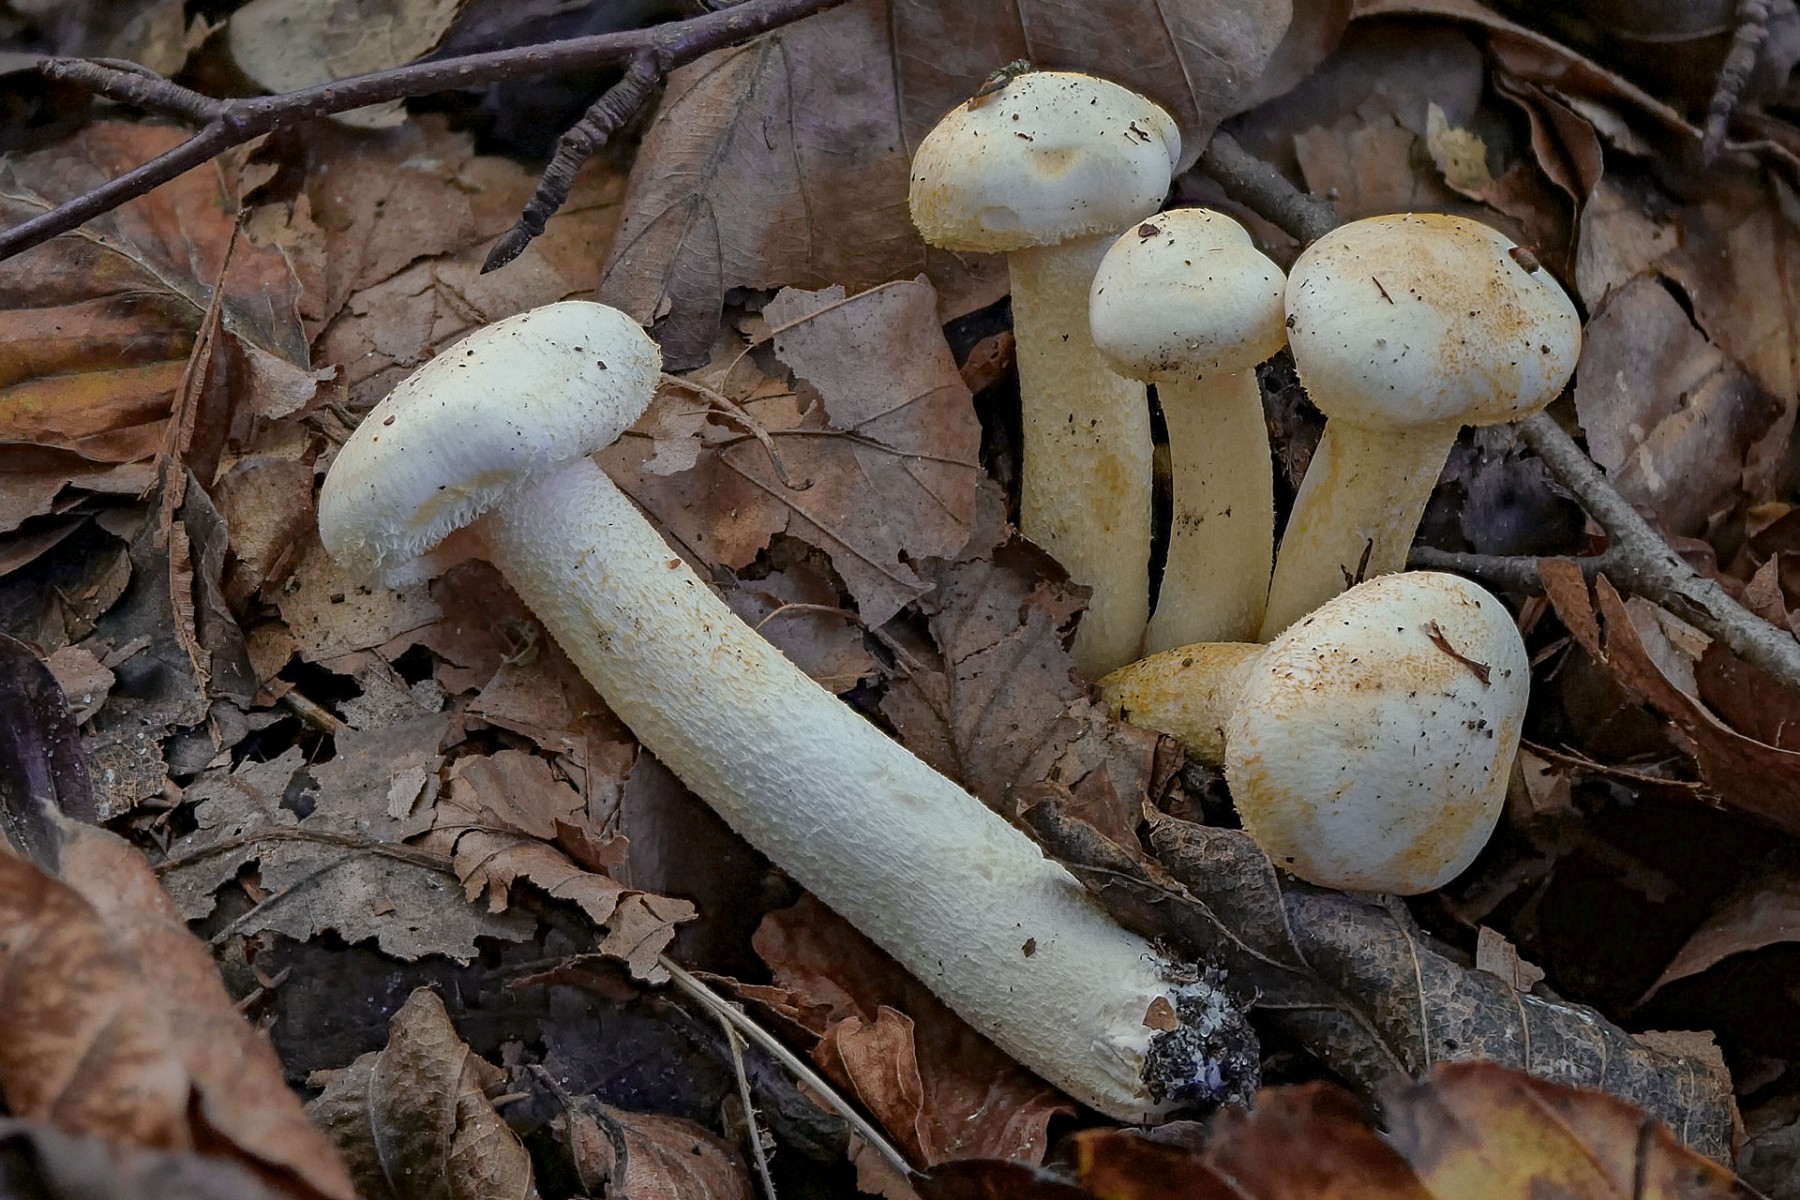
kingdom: Fungi
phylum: Basidiomycota
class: Agaricomycetes
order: Agaricales
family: Hygrophoraceae
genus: Hygrophorus
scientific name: Hygrophorus chrysodon
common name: gulfnugget sneglehat
